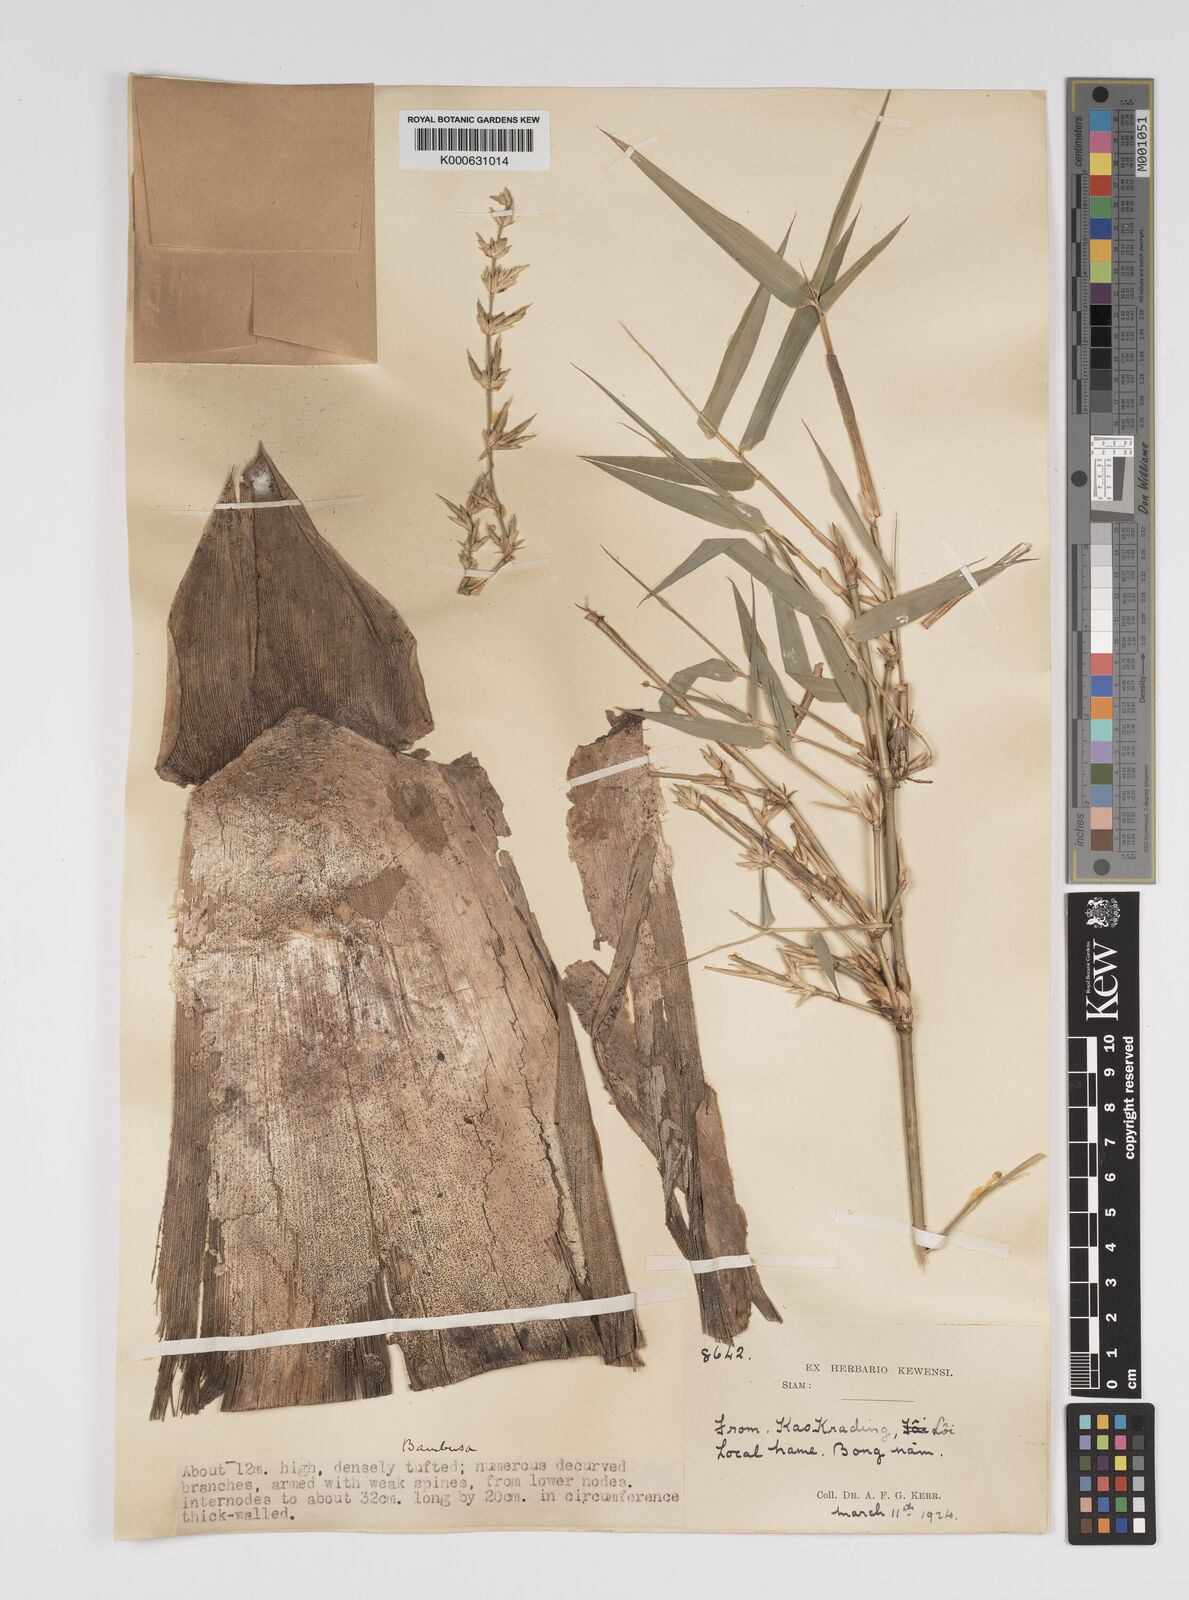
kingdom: Plantae
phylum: Tracheophyta
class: Liliopsida
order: Poales
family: Poaceae
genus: Bambusa
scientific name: Bambusa
